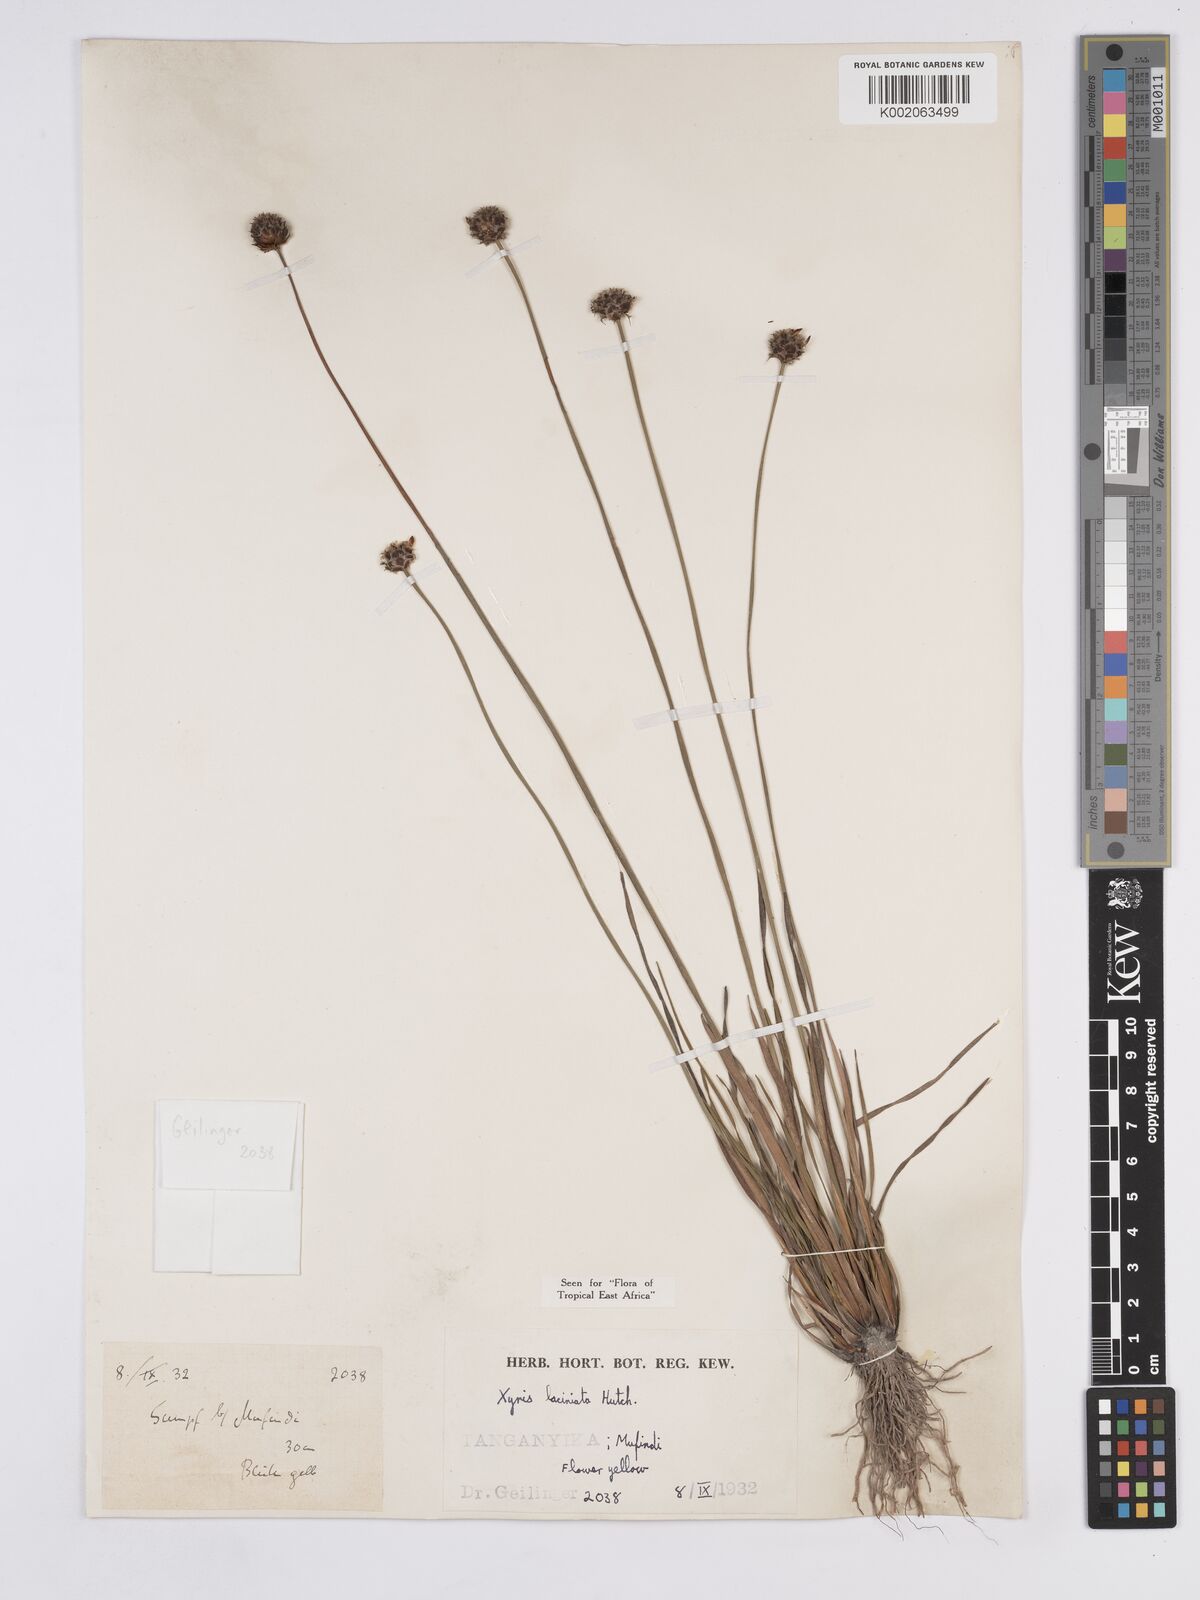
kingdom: Plantae
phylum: Tracheophyta
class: Liliopsida
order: Poales
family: Xyridaceae
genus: Xyris
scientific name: Xyris aristata
